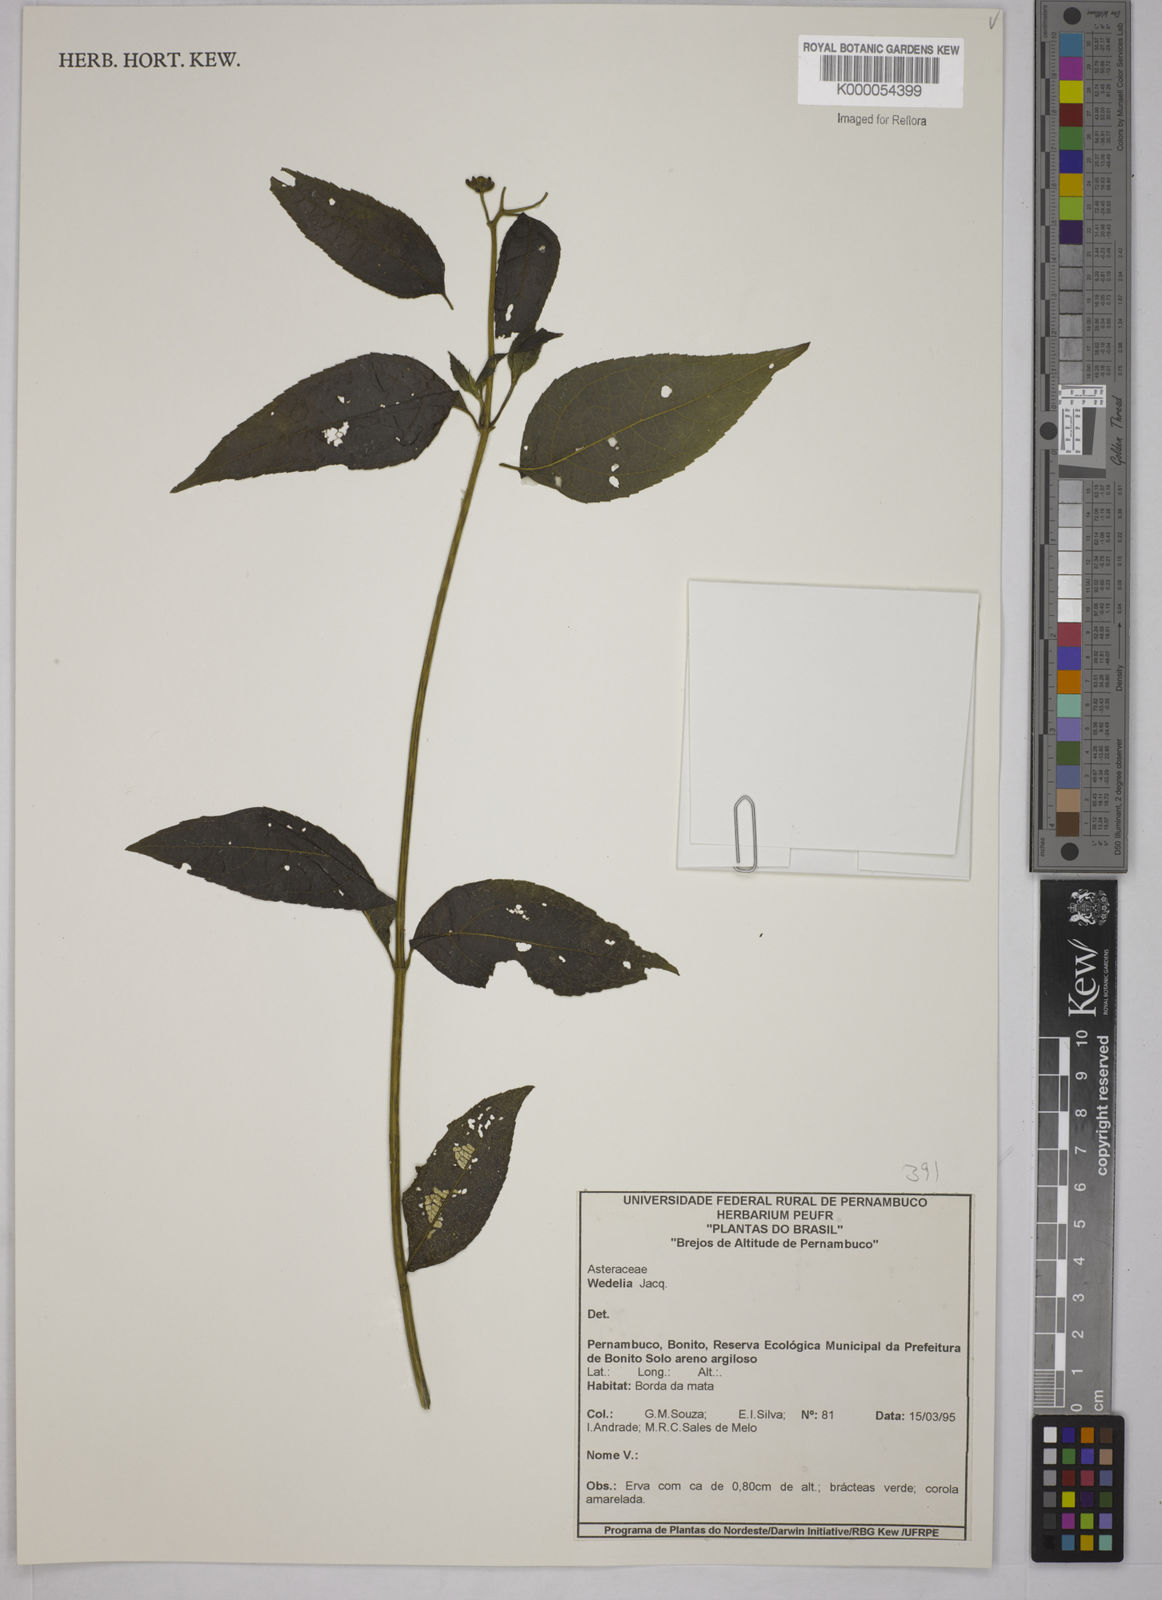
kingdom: Plantae
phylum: Tracheophyta
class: Magnoliopsida
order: Asterales
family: Asteraceae
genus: Wedelia
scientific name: Wedelia
